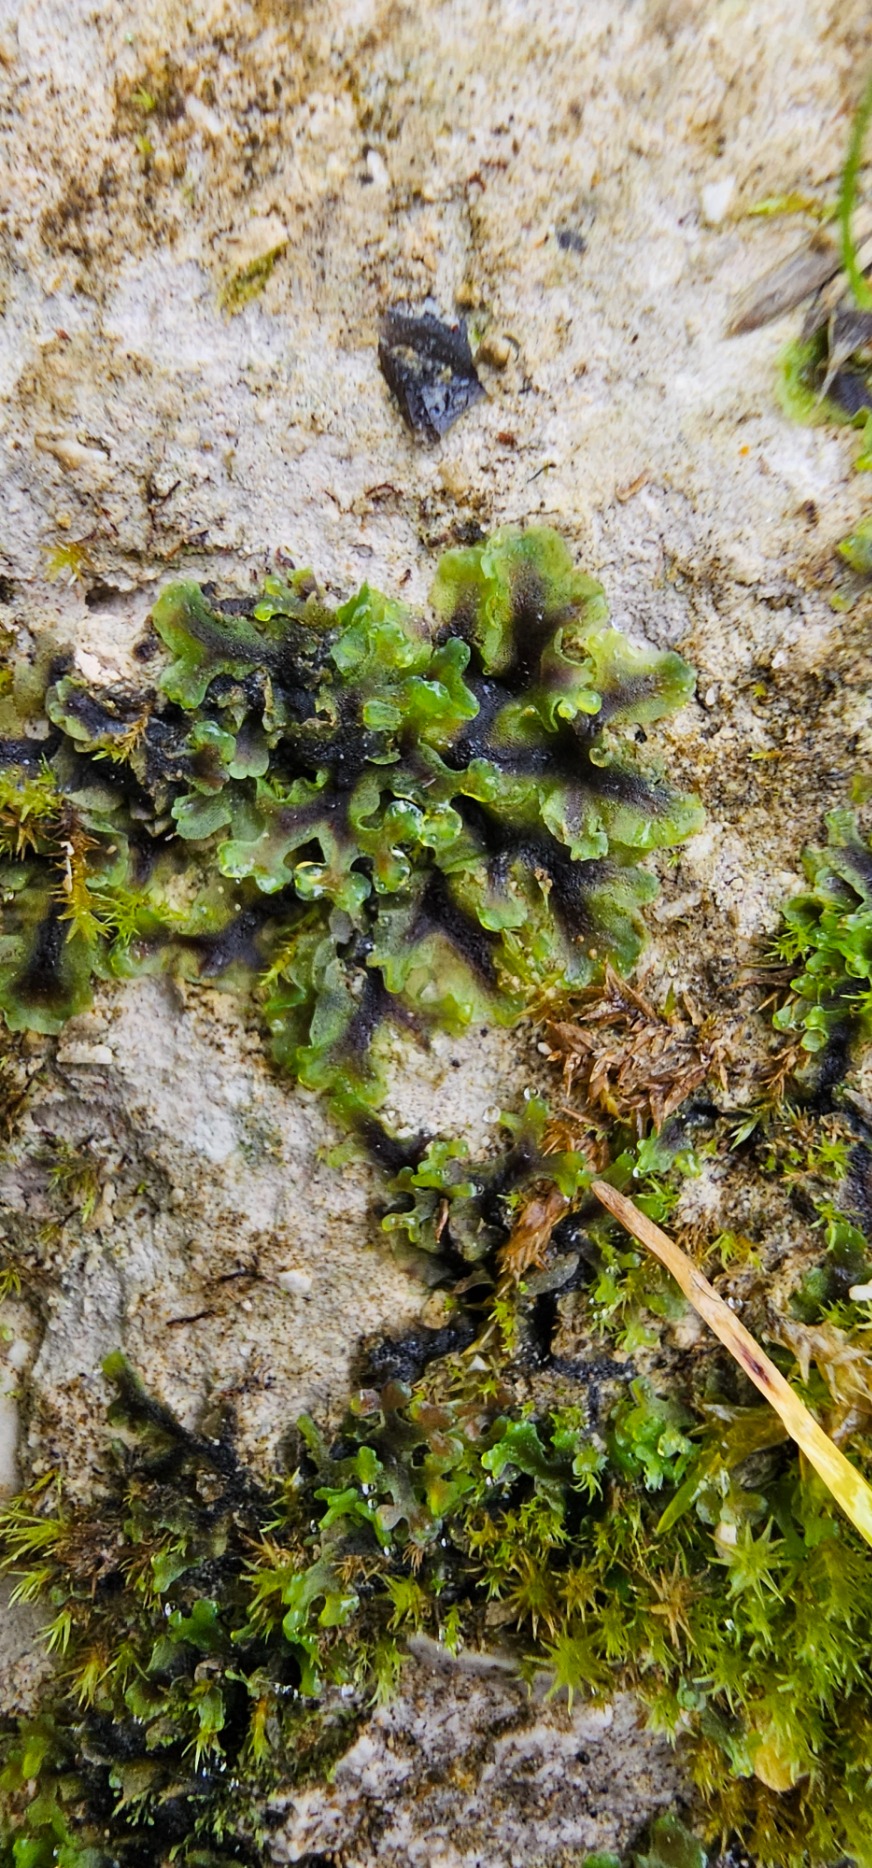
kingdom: Plantae
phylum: Marchantiophyta
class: Jungermanniopsida
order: Pelliales
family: Pelliaceae
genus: Apopellia
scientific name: Apopellia endiviifolia
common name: Fliget ribbeløv
